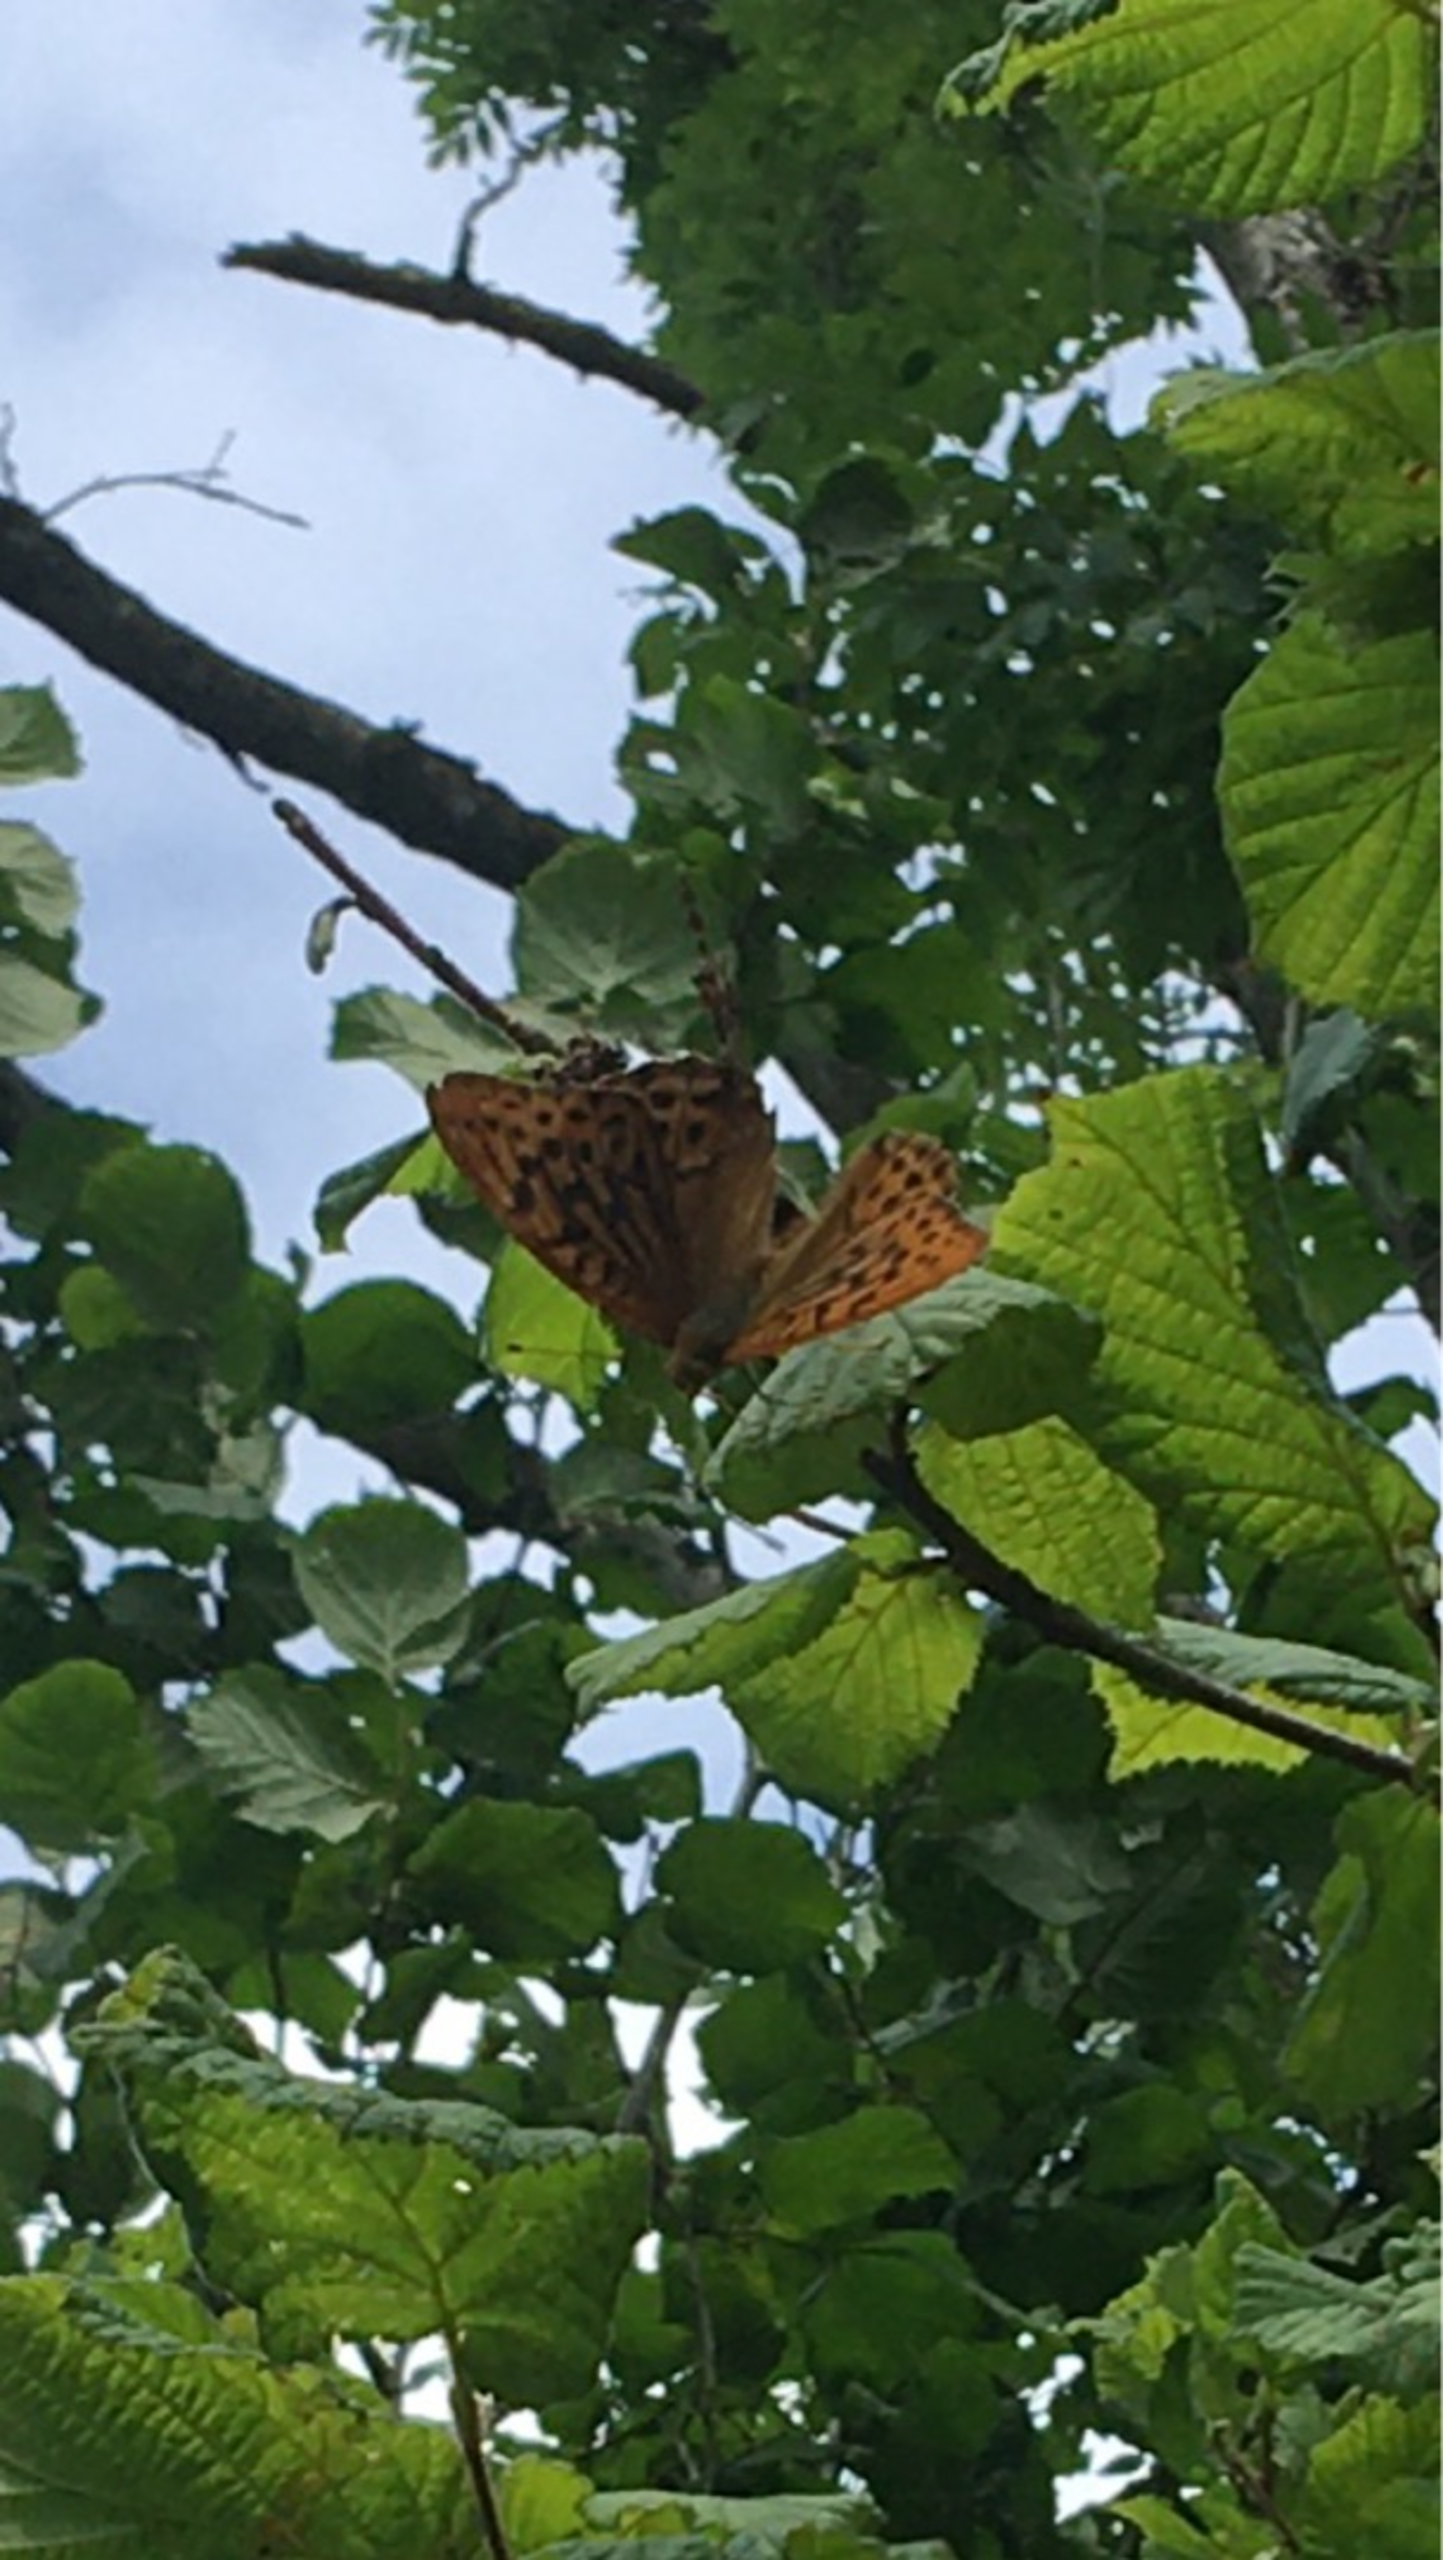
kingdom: Animalia
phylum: Arthropoda
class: Insecta
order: Lepidoptera
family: Nymphalidae
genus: Argynnis
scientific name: Argynnis paphia
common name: Kejserkåbe
